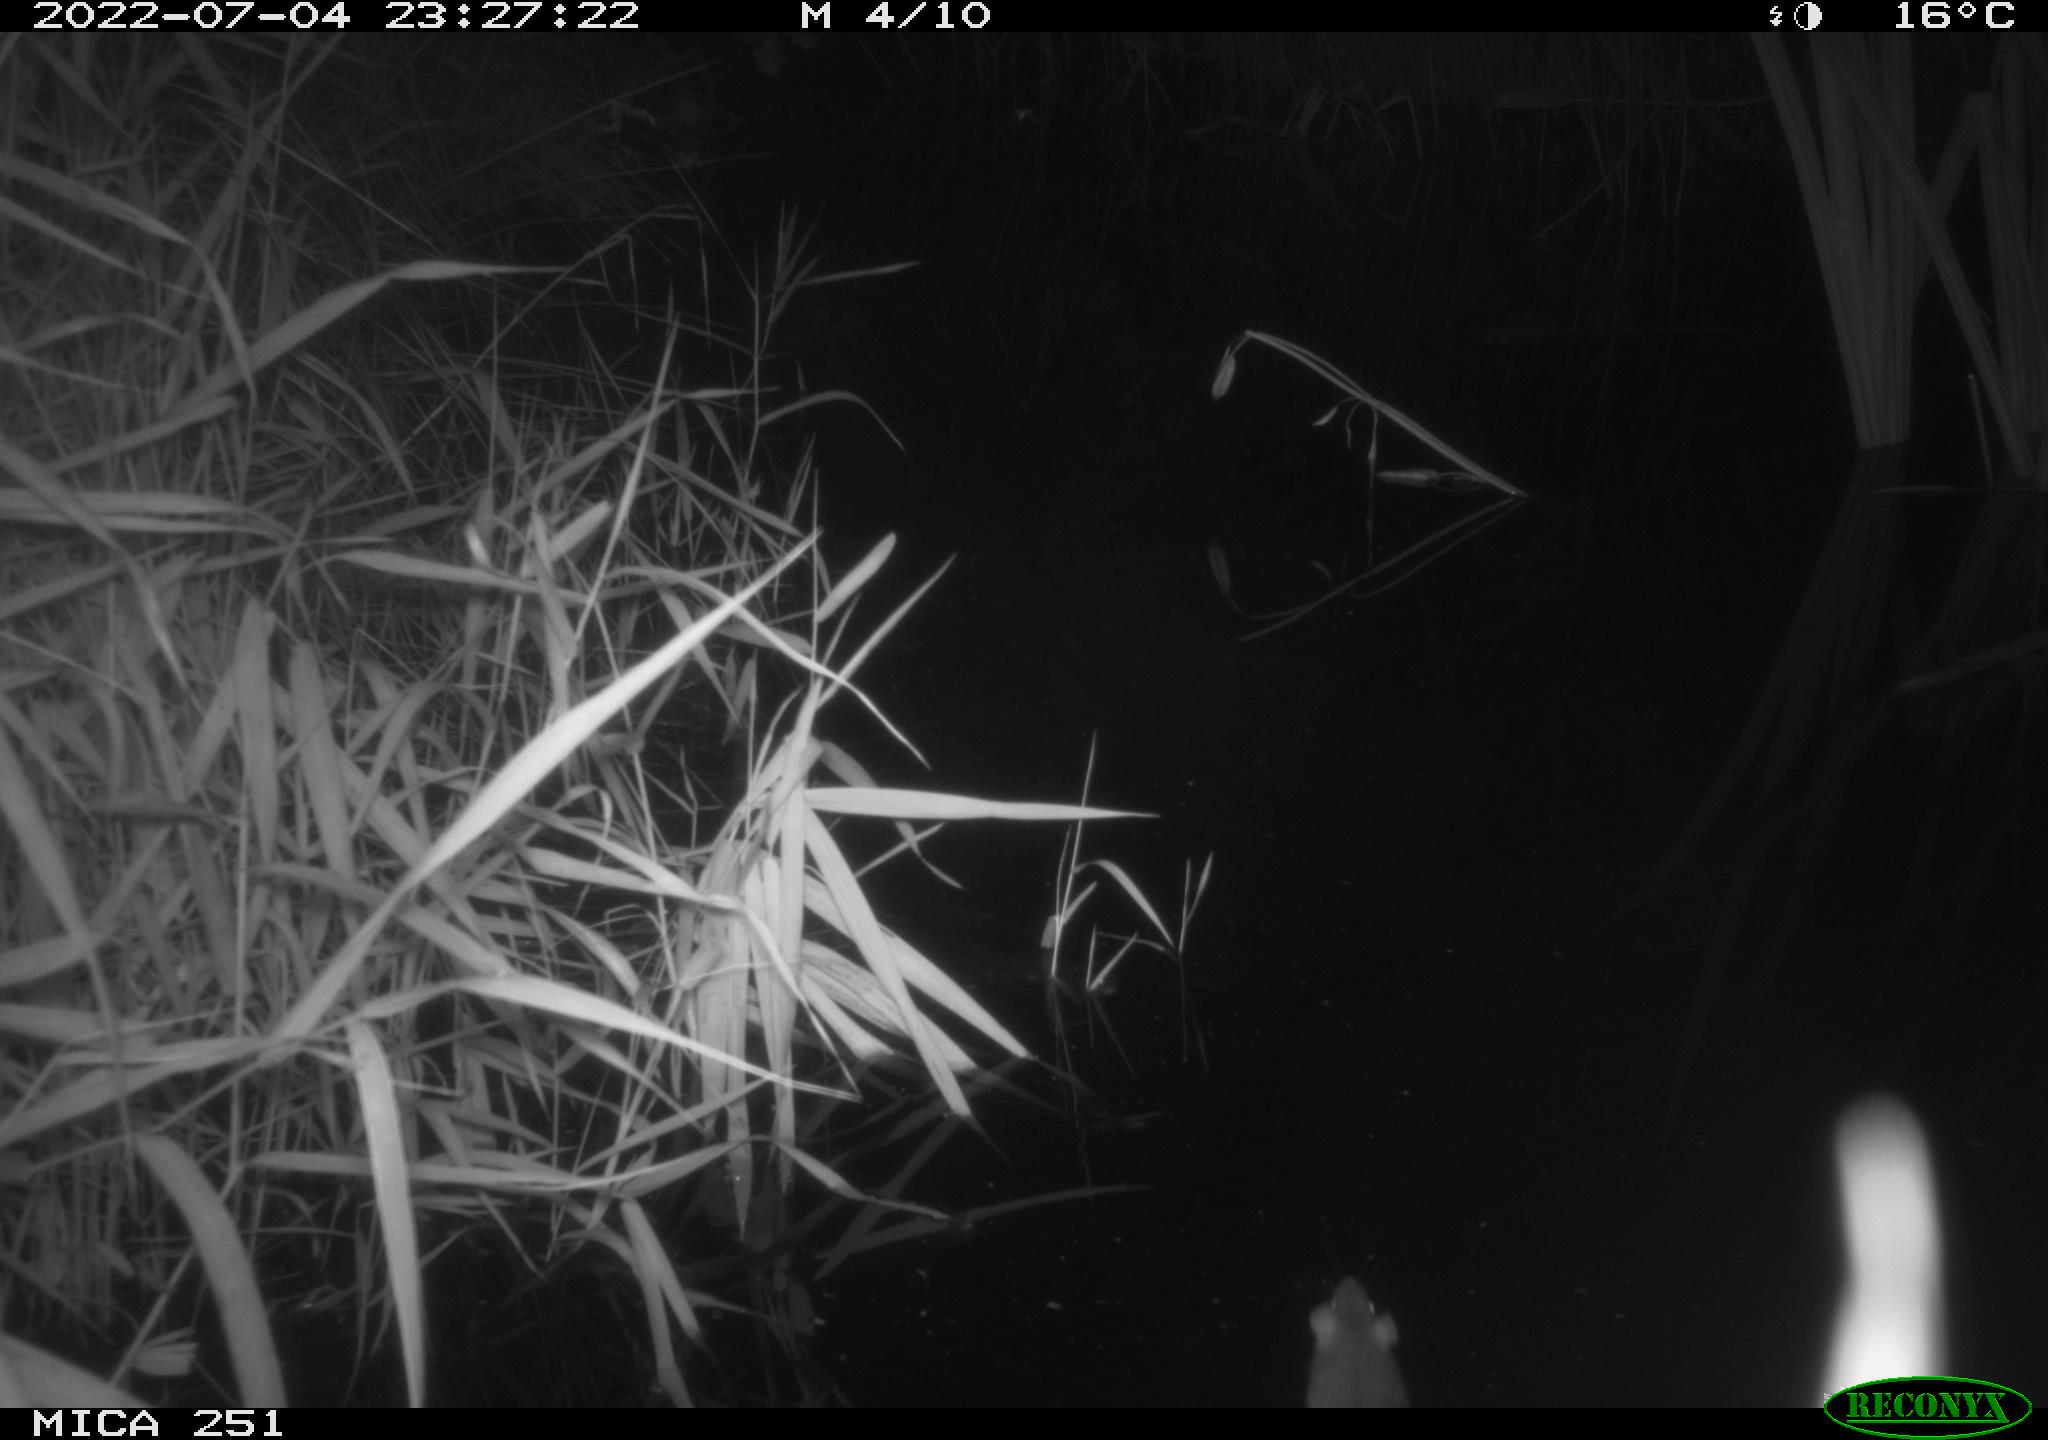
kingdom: Animalia
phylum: Chordata
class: Mammalia
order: Rodentia
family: Muridae
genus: Rattus
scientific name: Rattus norvegicus
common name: Brown rat
